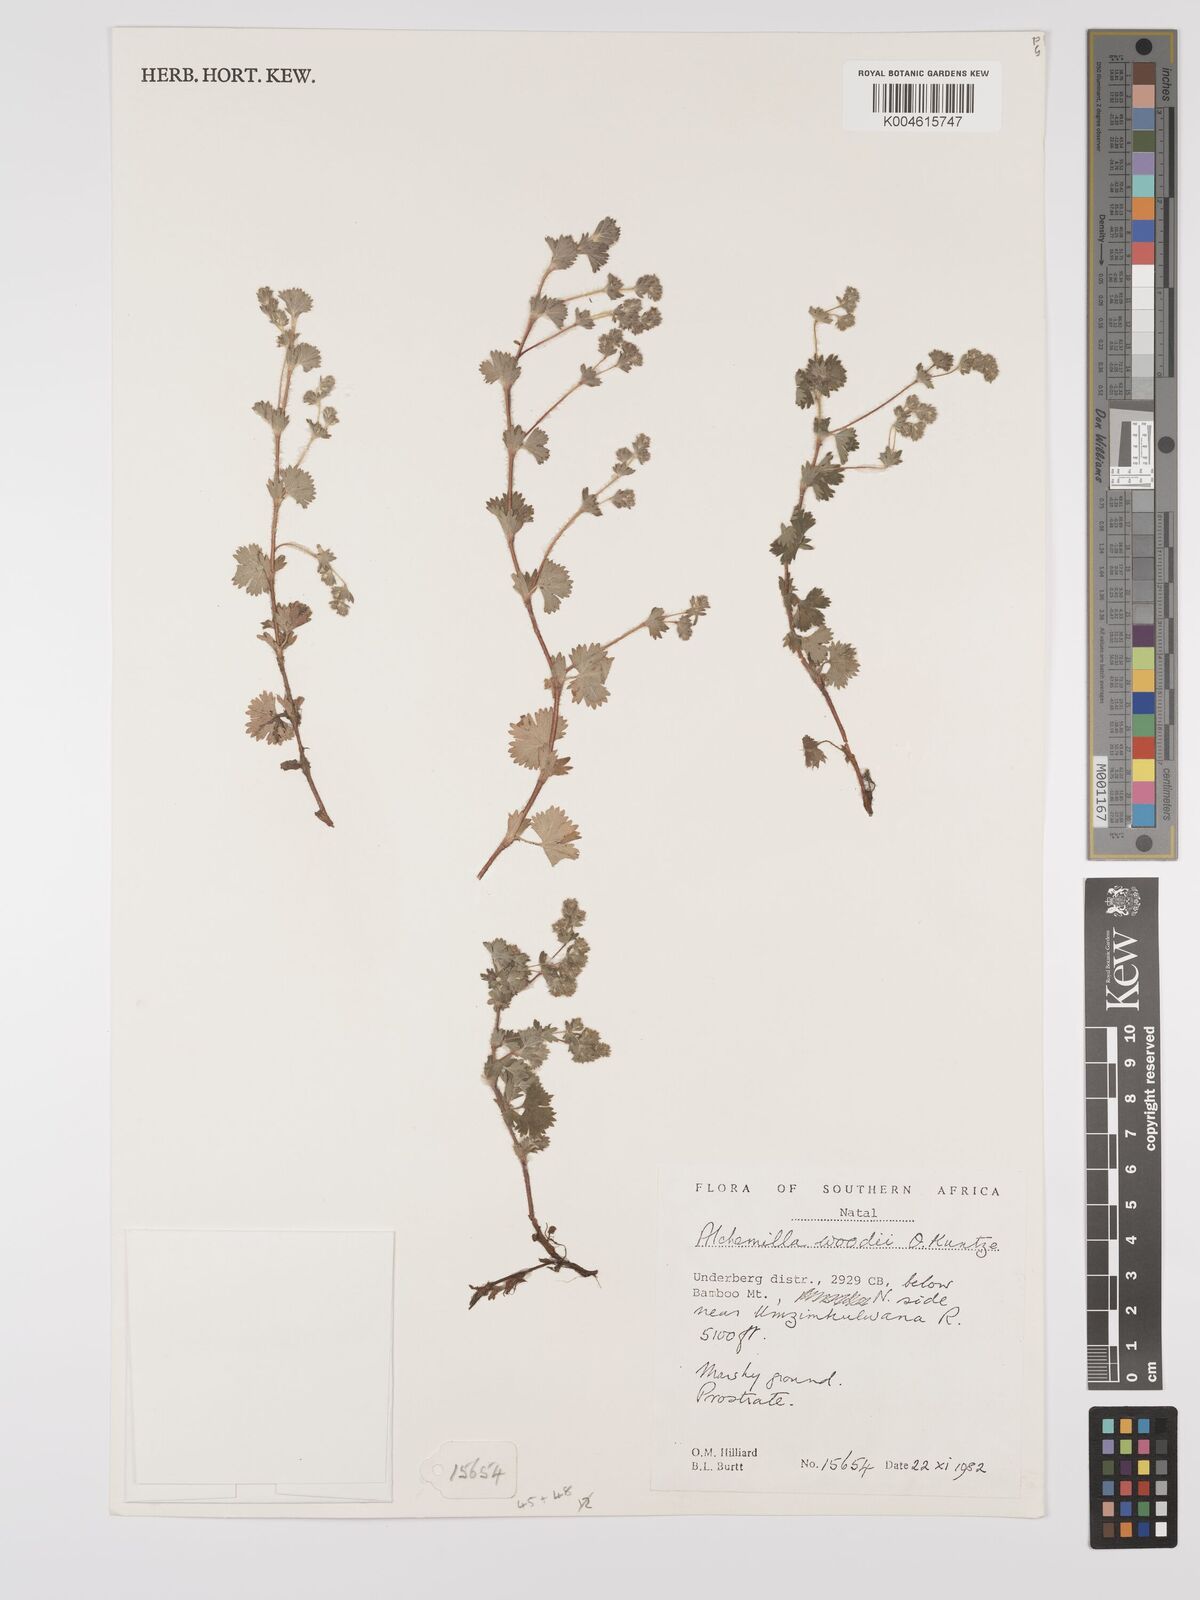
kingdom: Plantae
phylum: Tracheophyta
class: Magnoliopsida
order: Rosales
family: Rosaceae
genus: Alchemilla
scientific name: Alchemilla woodii
